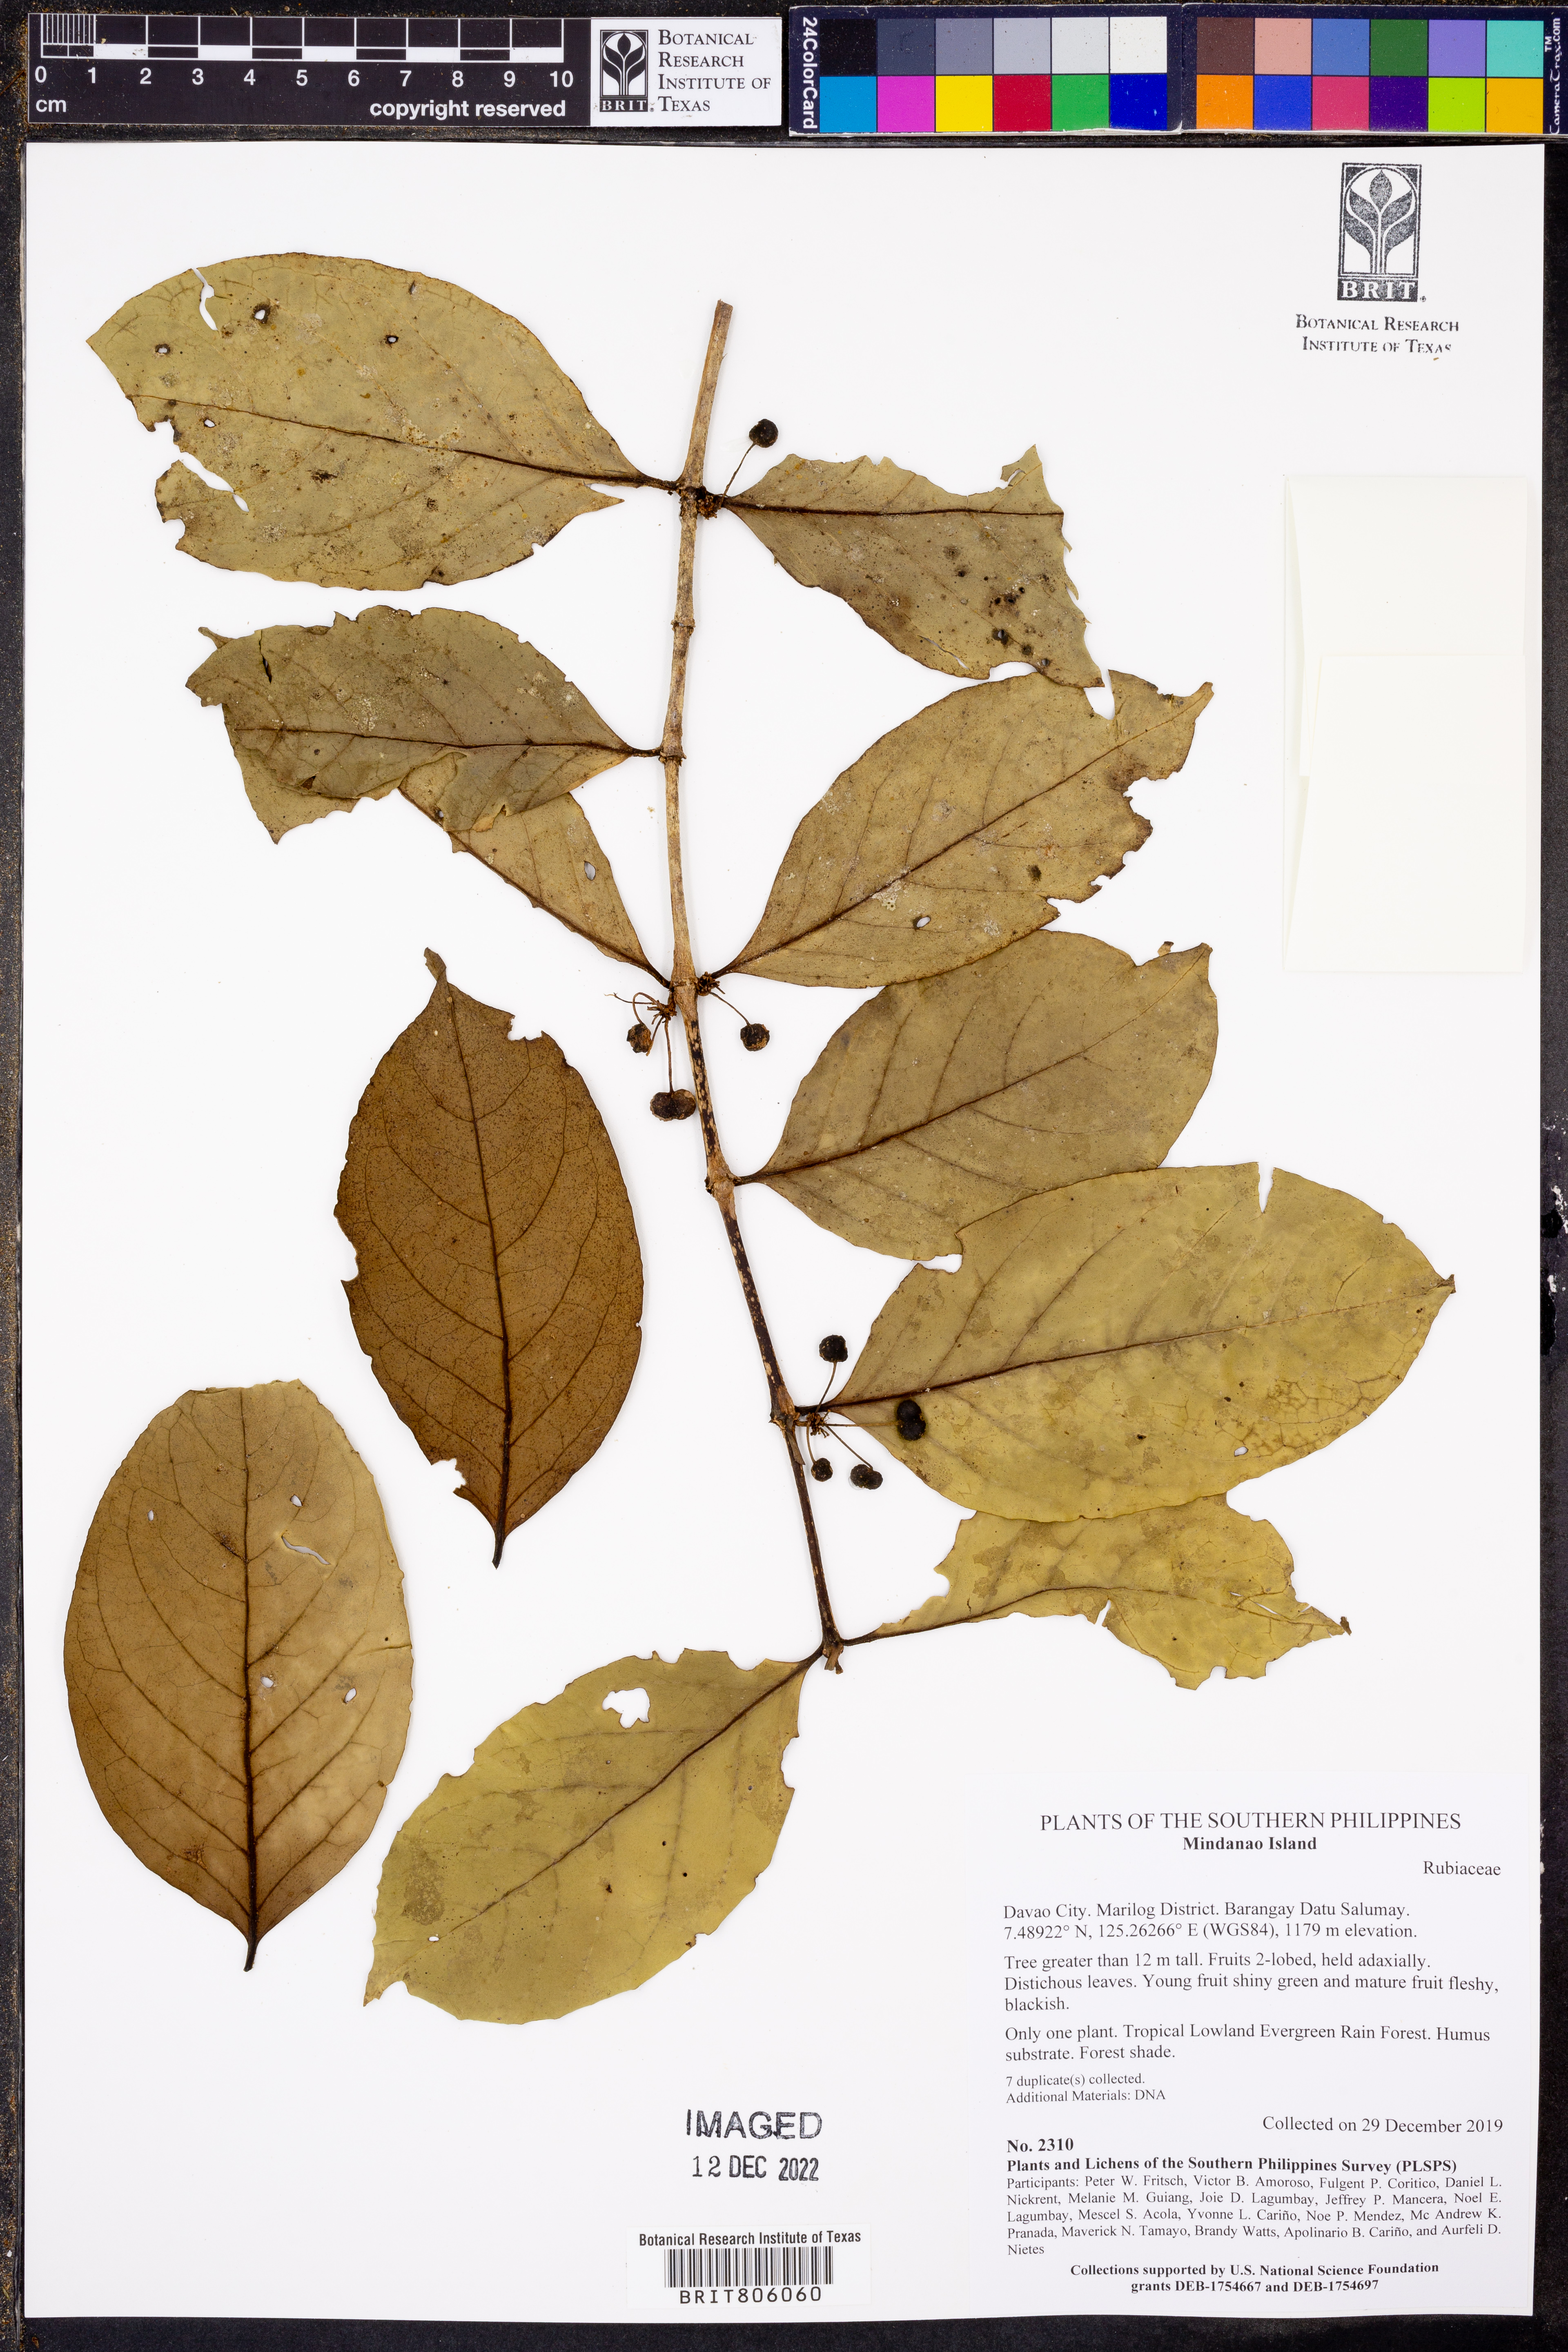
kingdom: Plantae
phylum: Tracheophyta
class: Magnoliopsida
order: Gentianales
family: Rubiaceae
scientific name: Rubiaceae
